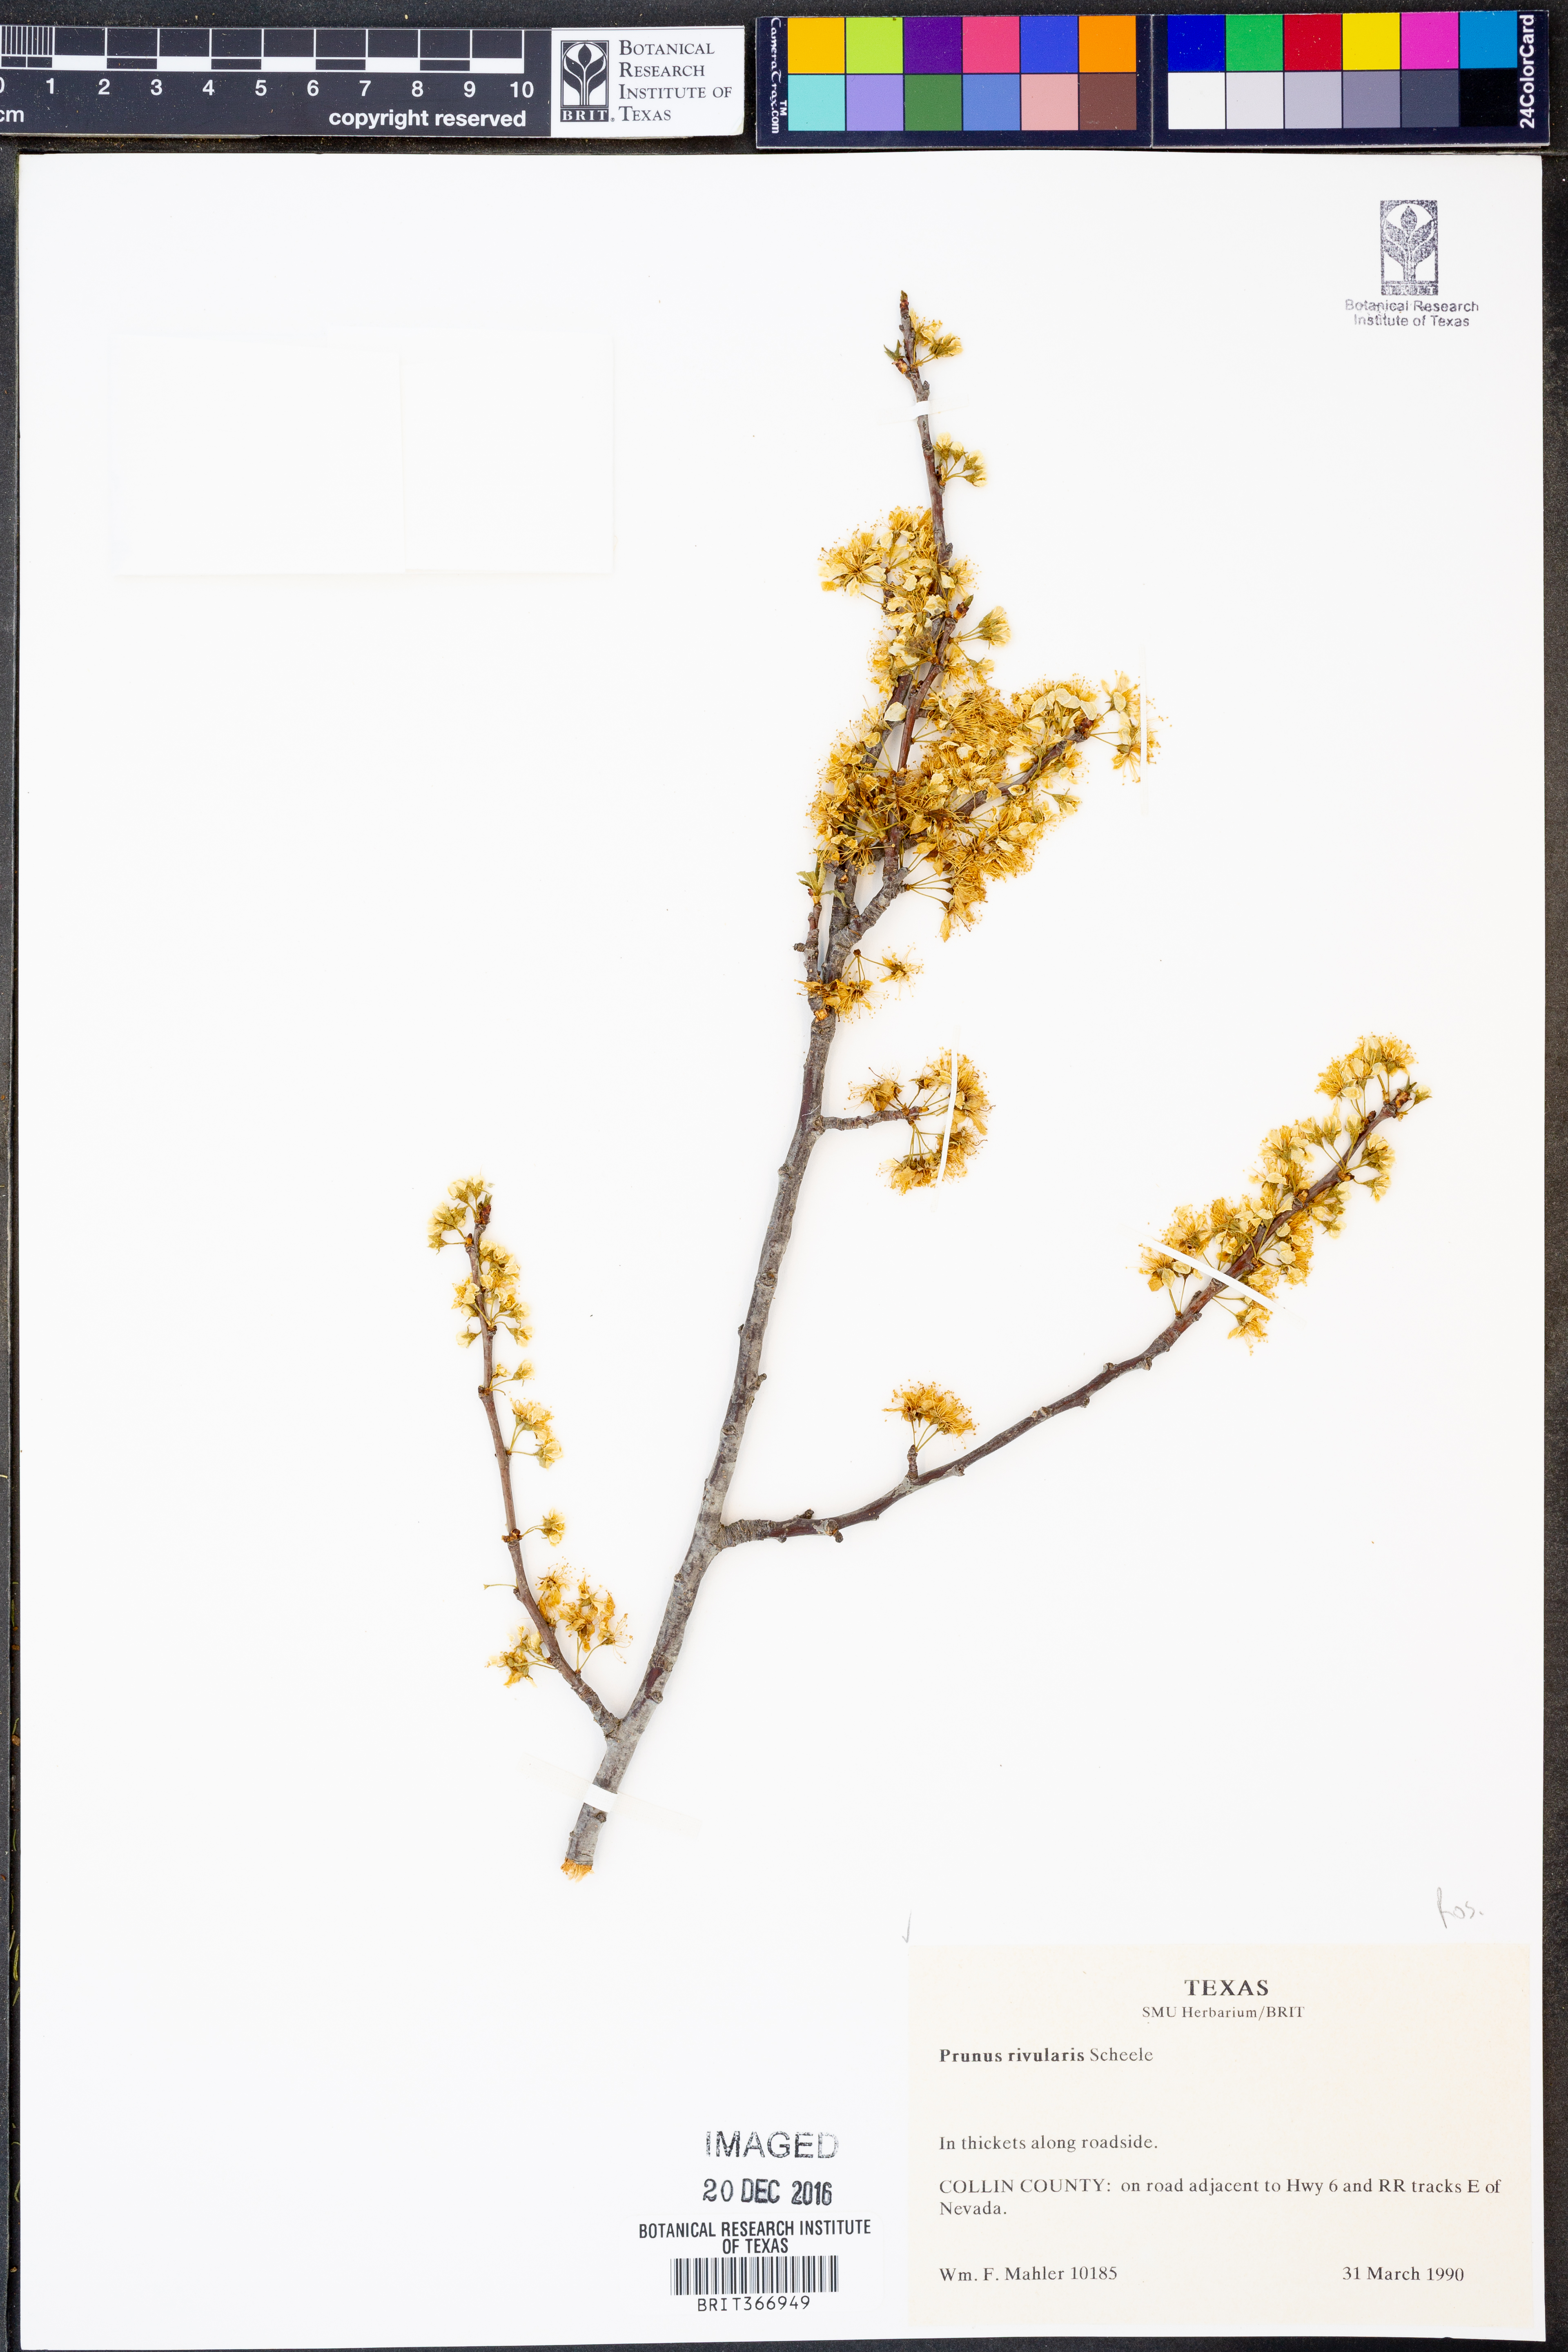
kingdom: Plantae
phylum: Tracheophyta
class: Magnoliopsida
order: Rosales
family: Rosaceae
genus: Prunus
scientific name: Prunus rivularis
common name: Creek plum
